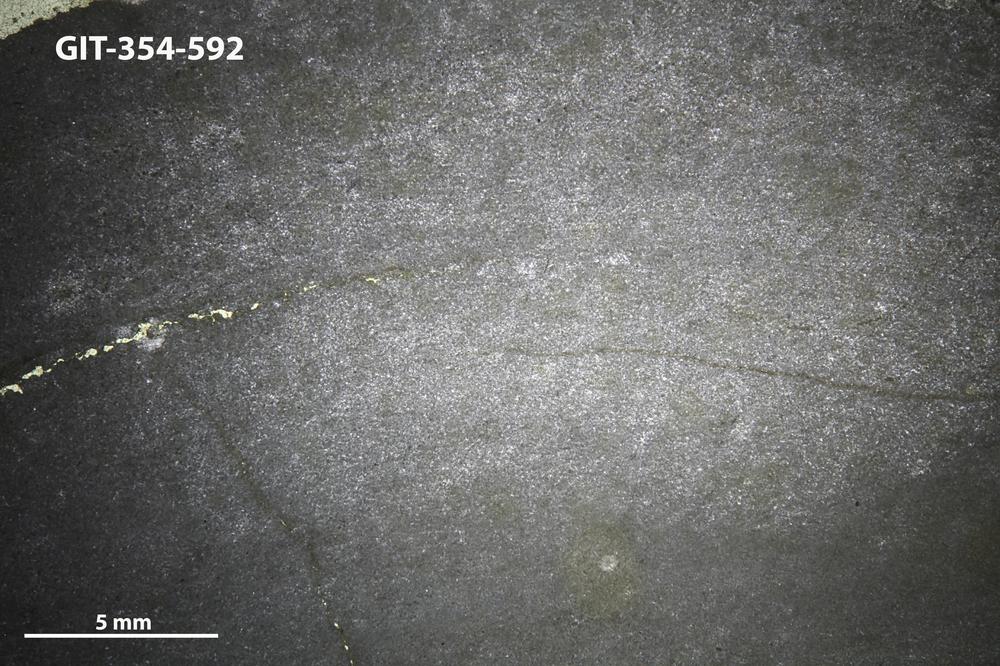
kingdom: Animalia
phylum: Porifera
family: Ecclimadictyidae
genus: Ecclimadictyon
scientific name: Ecclimadictyon macrotuberculatum
